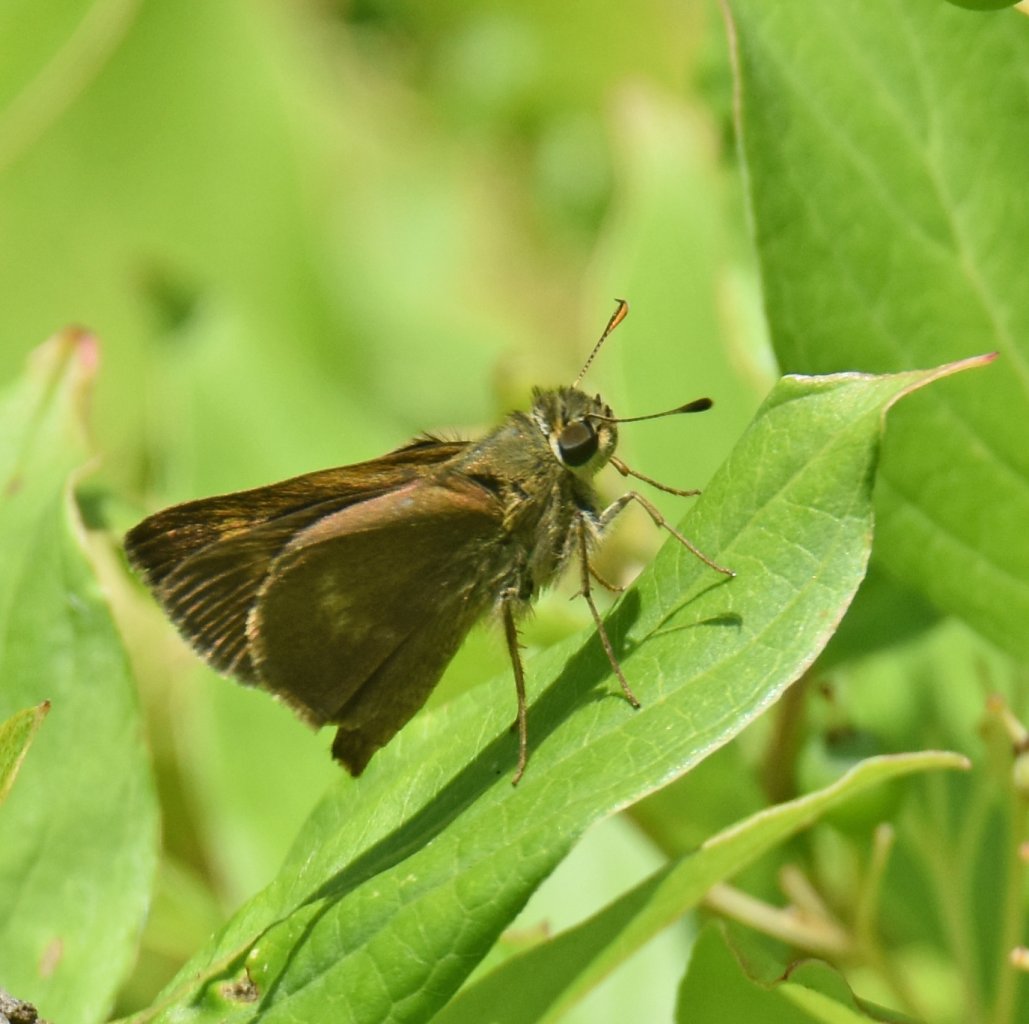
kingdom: Animalia
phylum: Arthropoda
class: Insecta
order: Lepidoptera
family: Hesperiidae
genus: Polites
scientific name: Polites egeremet
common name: Northern Broken-Dash
